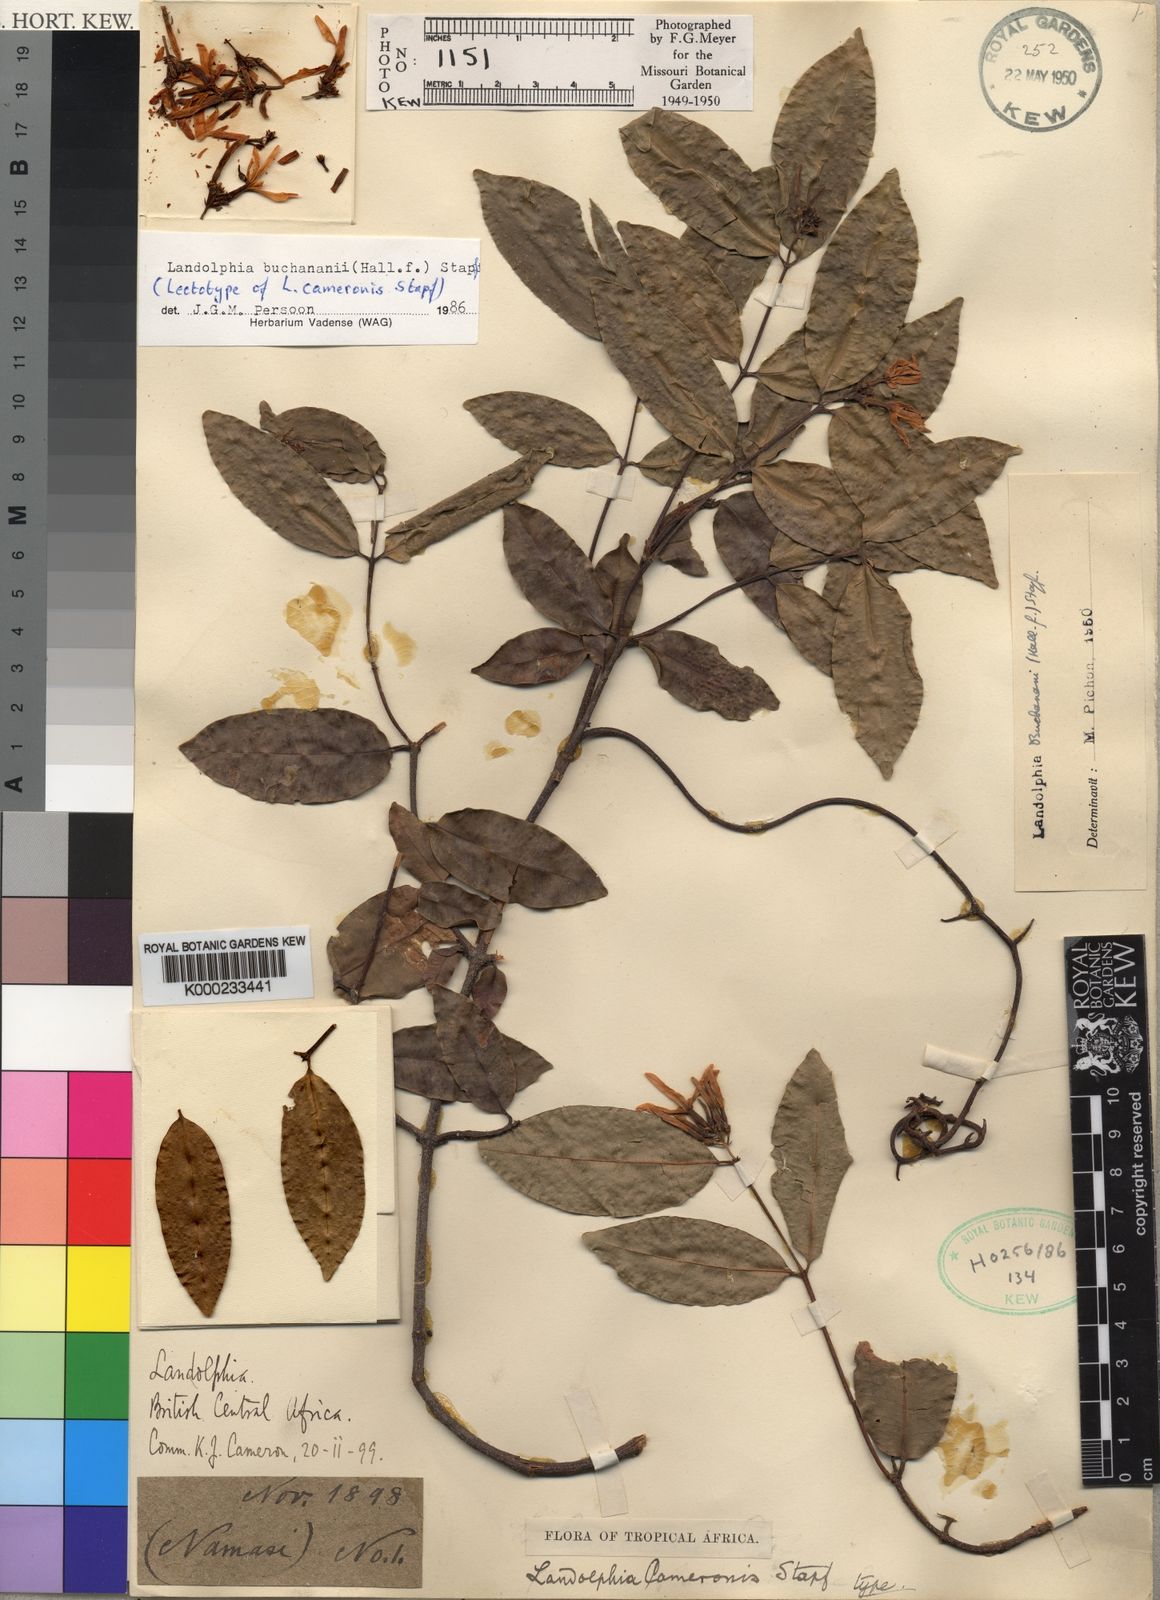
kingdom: Plantae
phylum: Tracheophyta
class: Magnoliopsida
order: Gentianales
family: Apocynaceae
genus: Landolphia
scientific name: Landolphia buchananii
